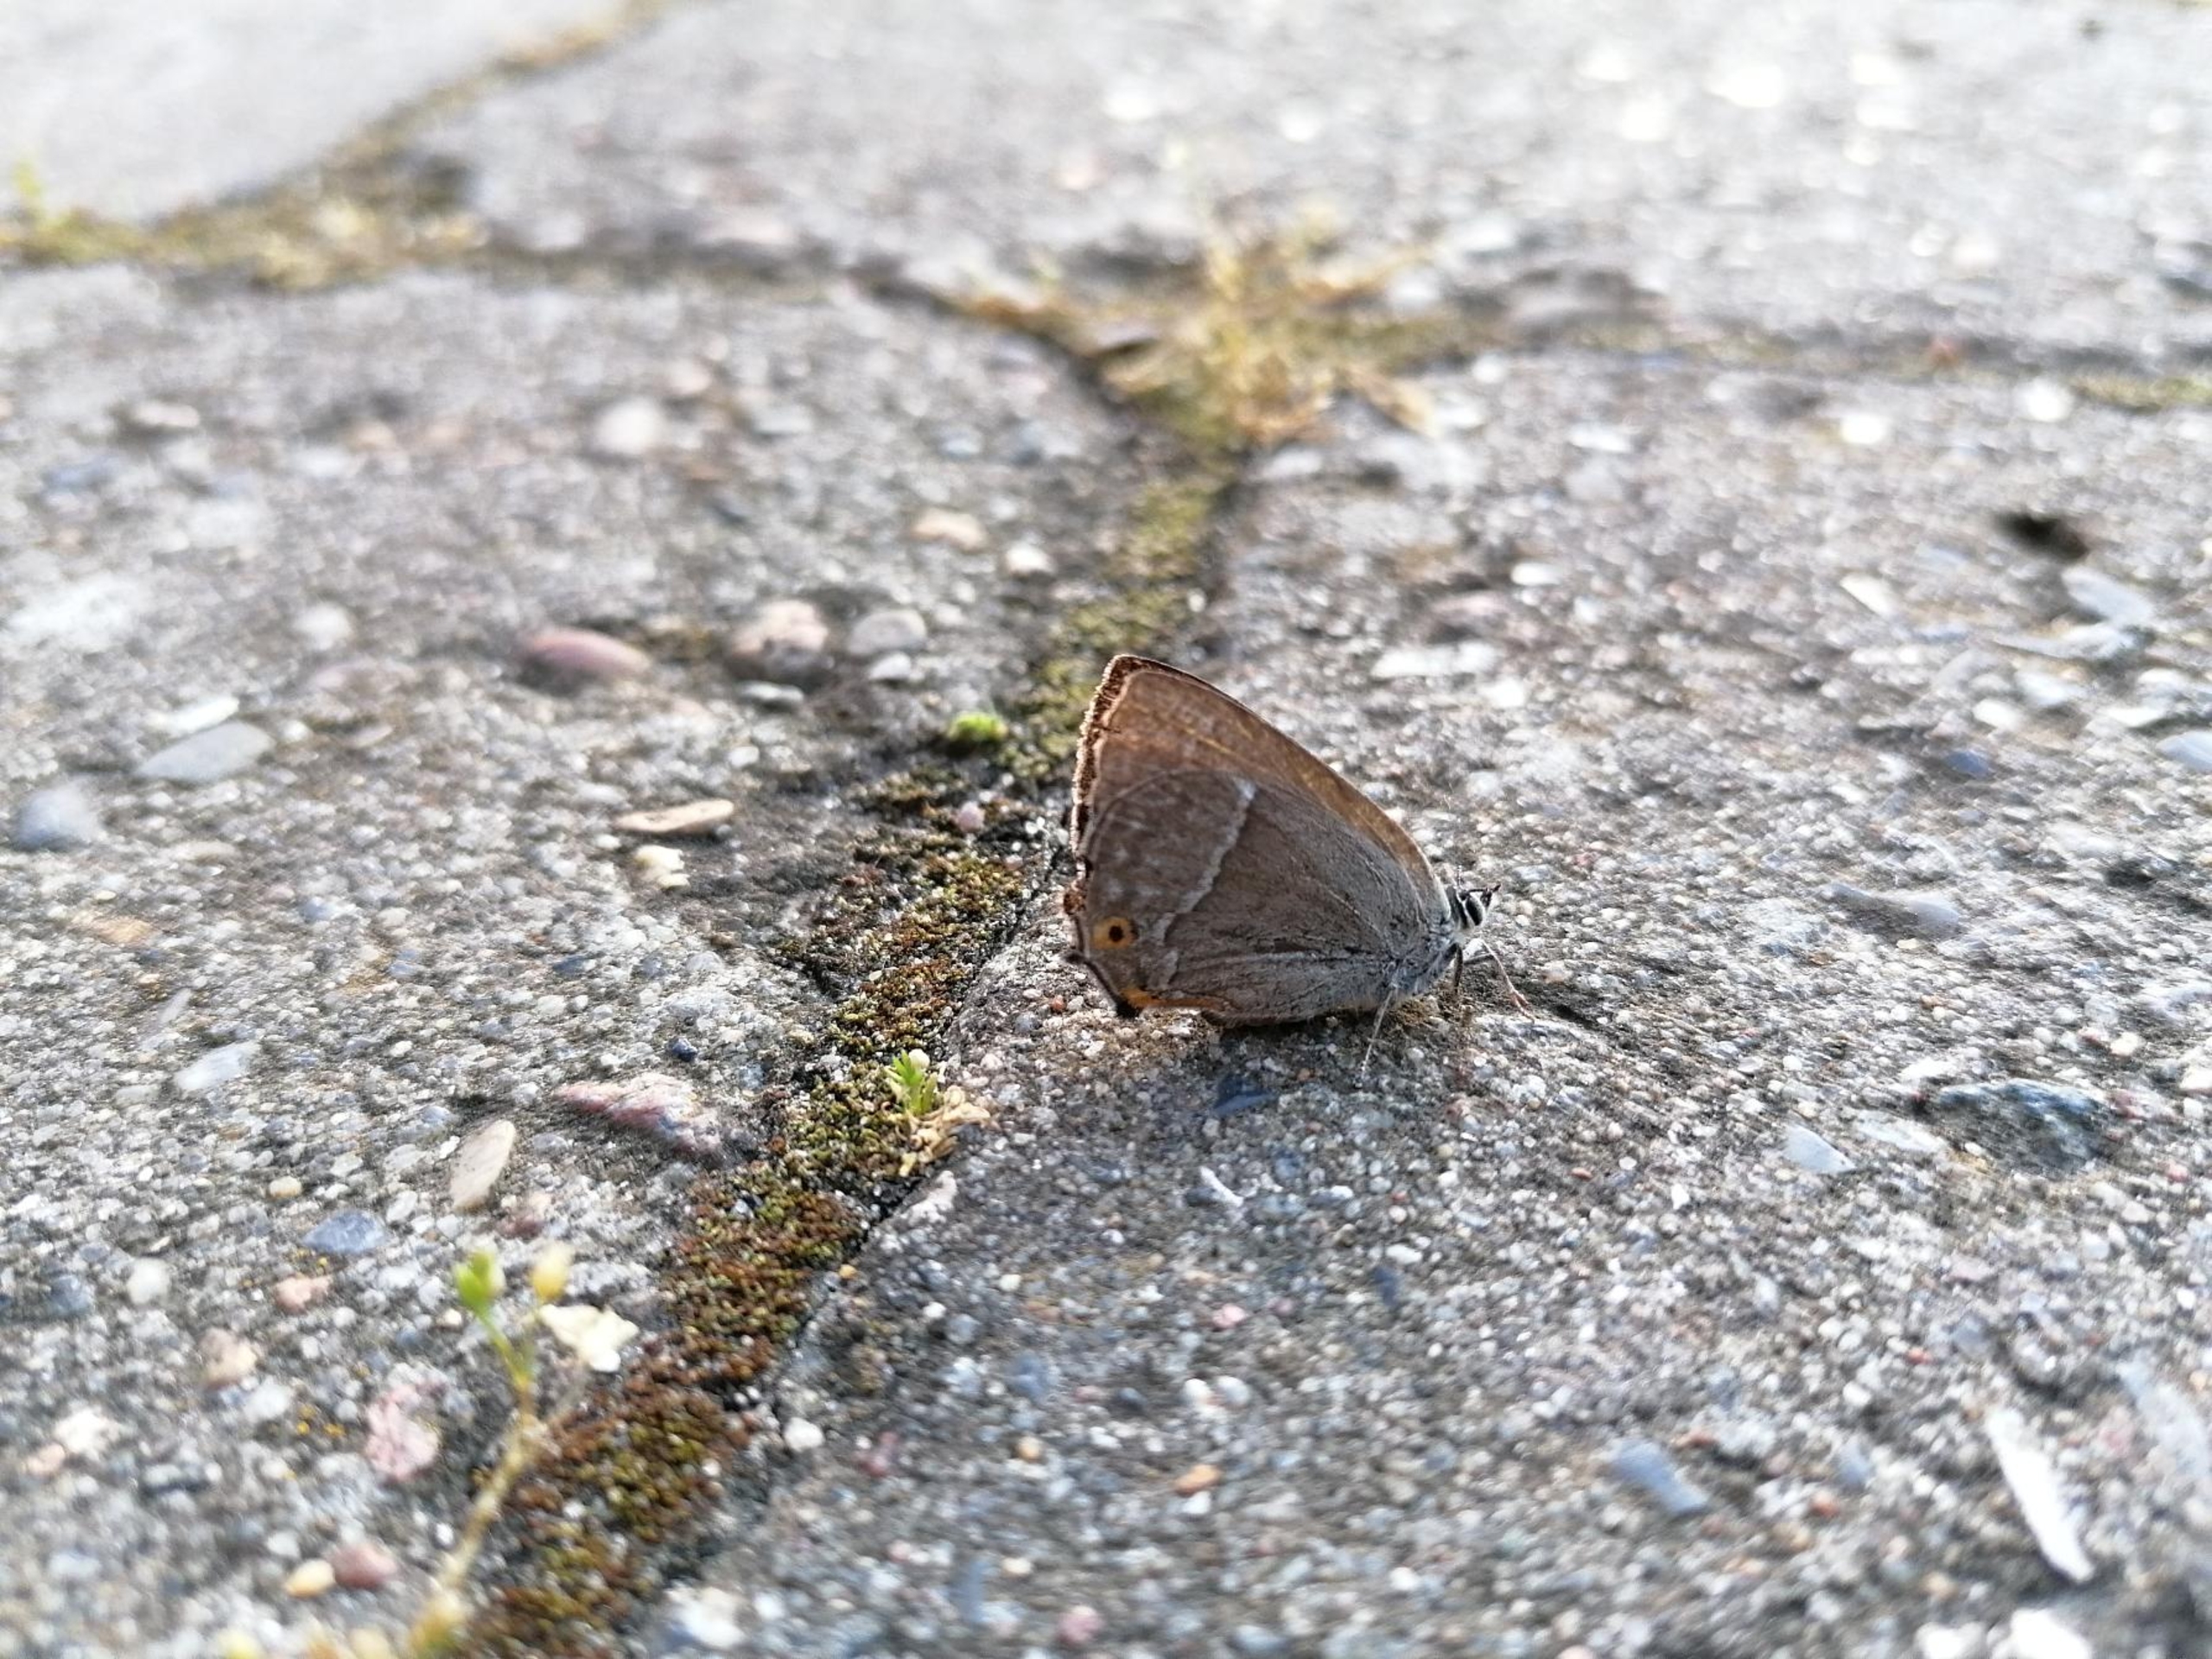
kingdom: Animalia
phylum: Arthropoda
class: Insecta
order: Lepidoptera
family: Lycaenidae
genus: Quercusia
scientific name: Quercusia quercus
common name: Blåhale
